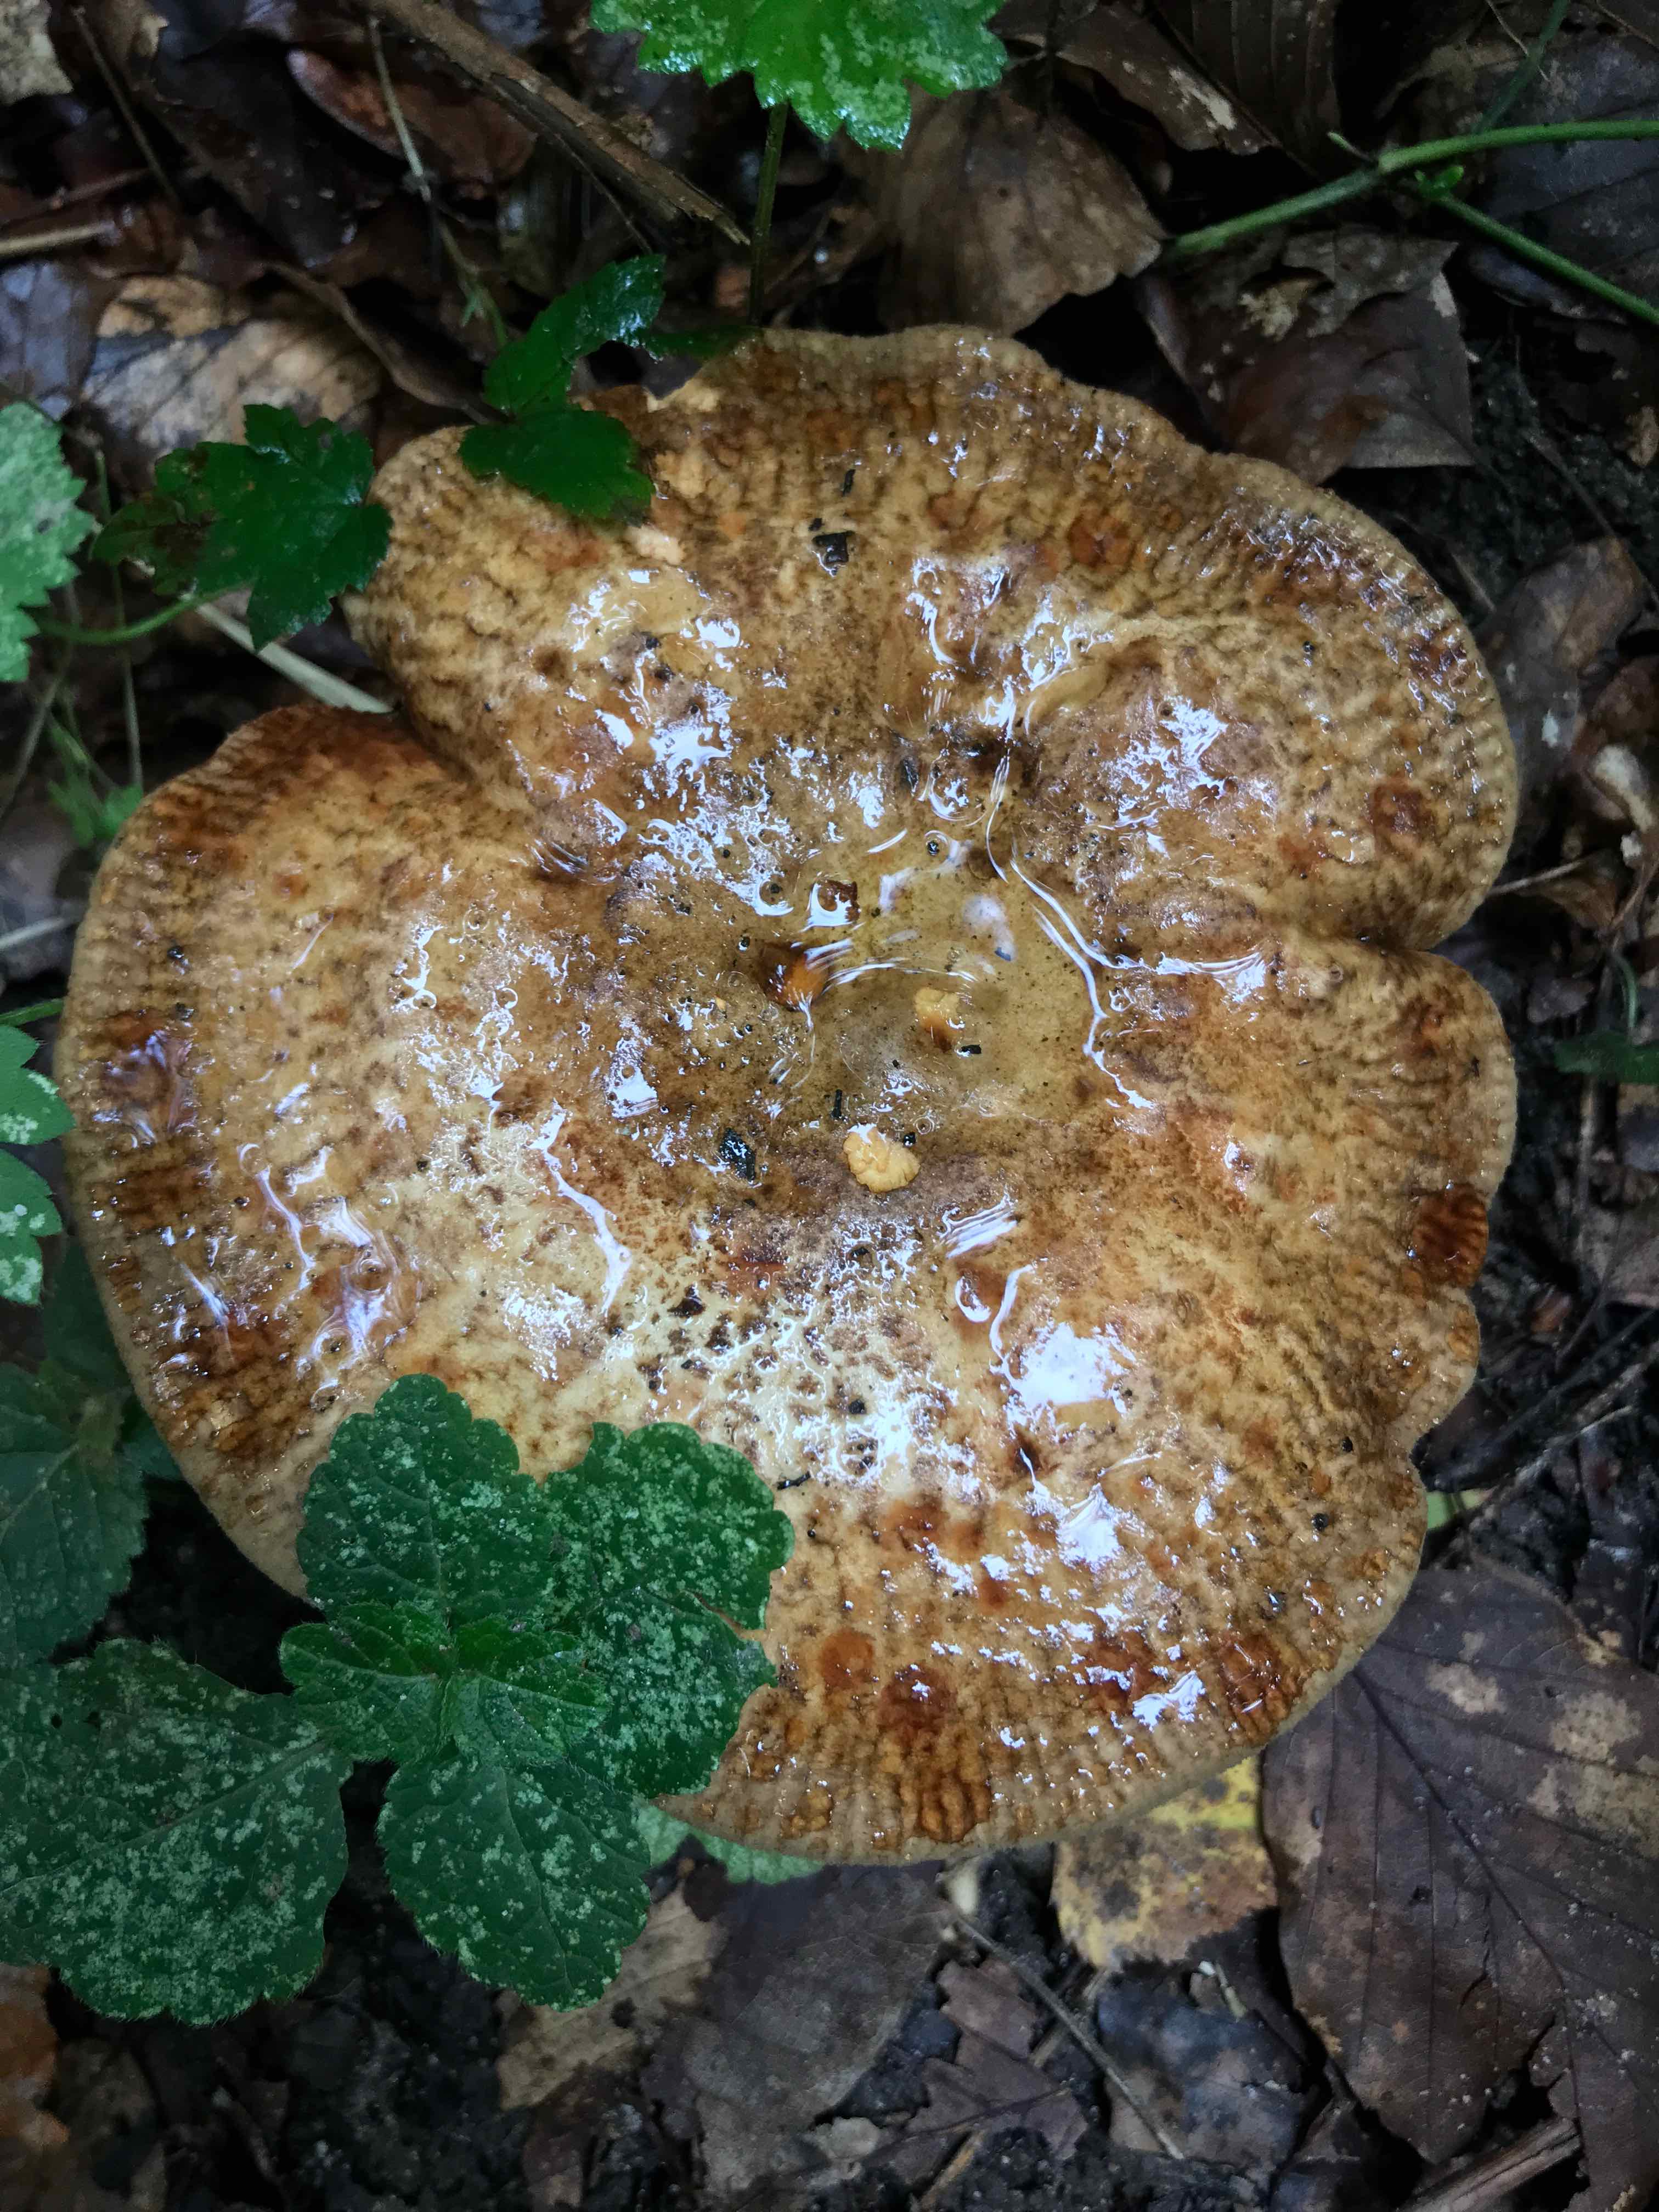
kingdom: Fungi
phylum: Basidiomycota
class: Agaricomycetes
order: Boletales
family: Paxillaceae
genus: Paxillus
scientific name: Paxillus involutus
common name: almindelig netbladhat
